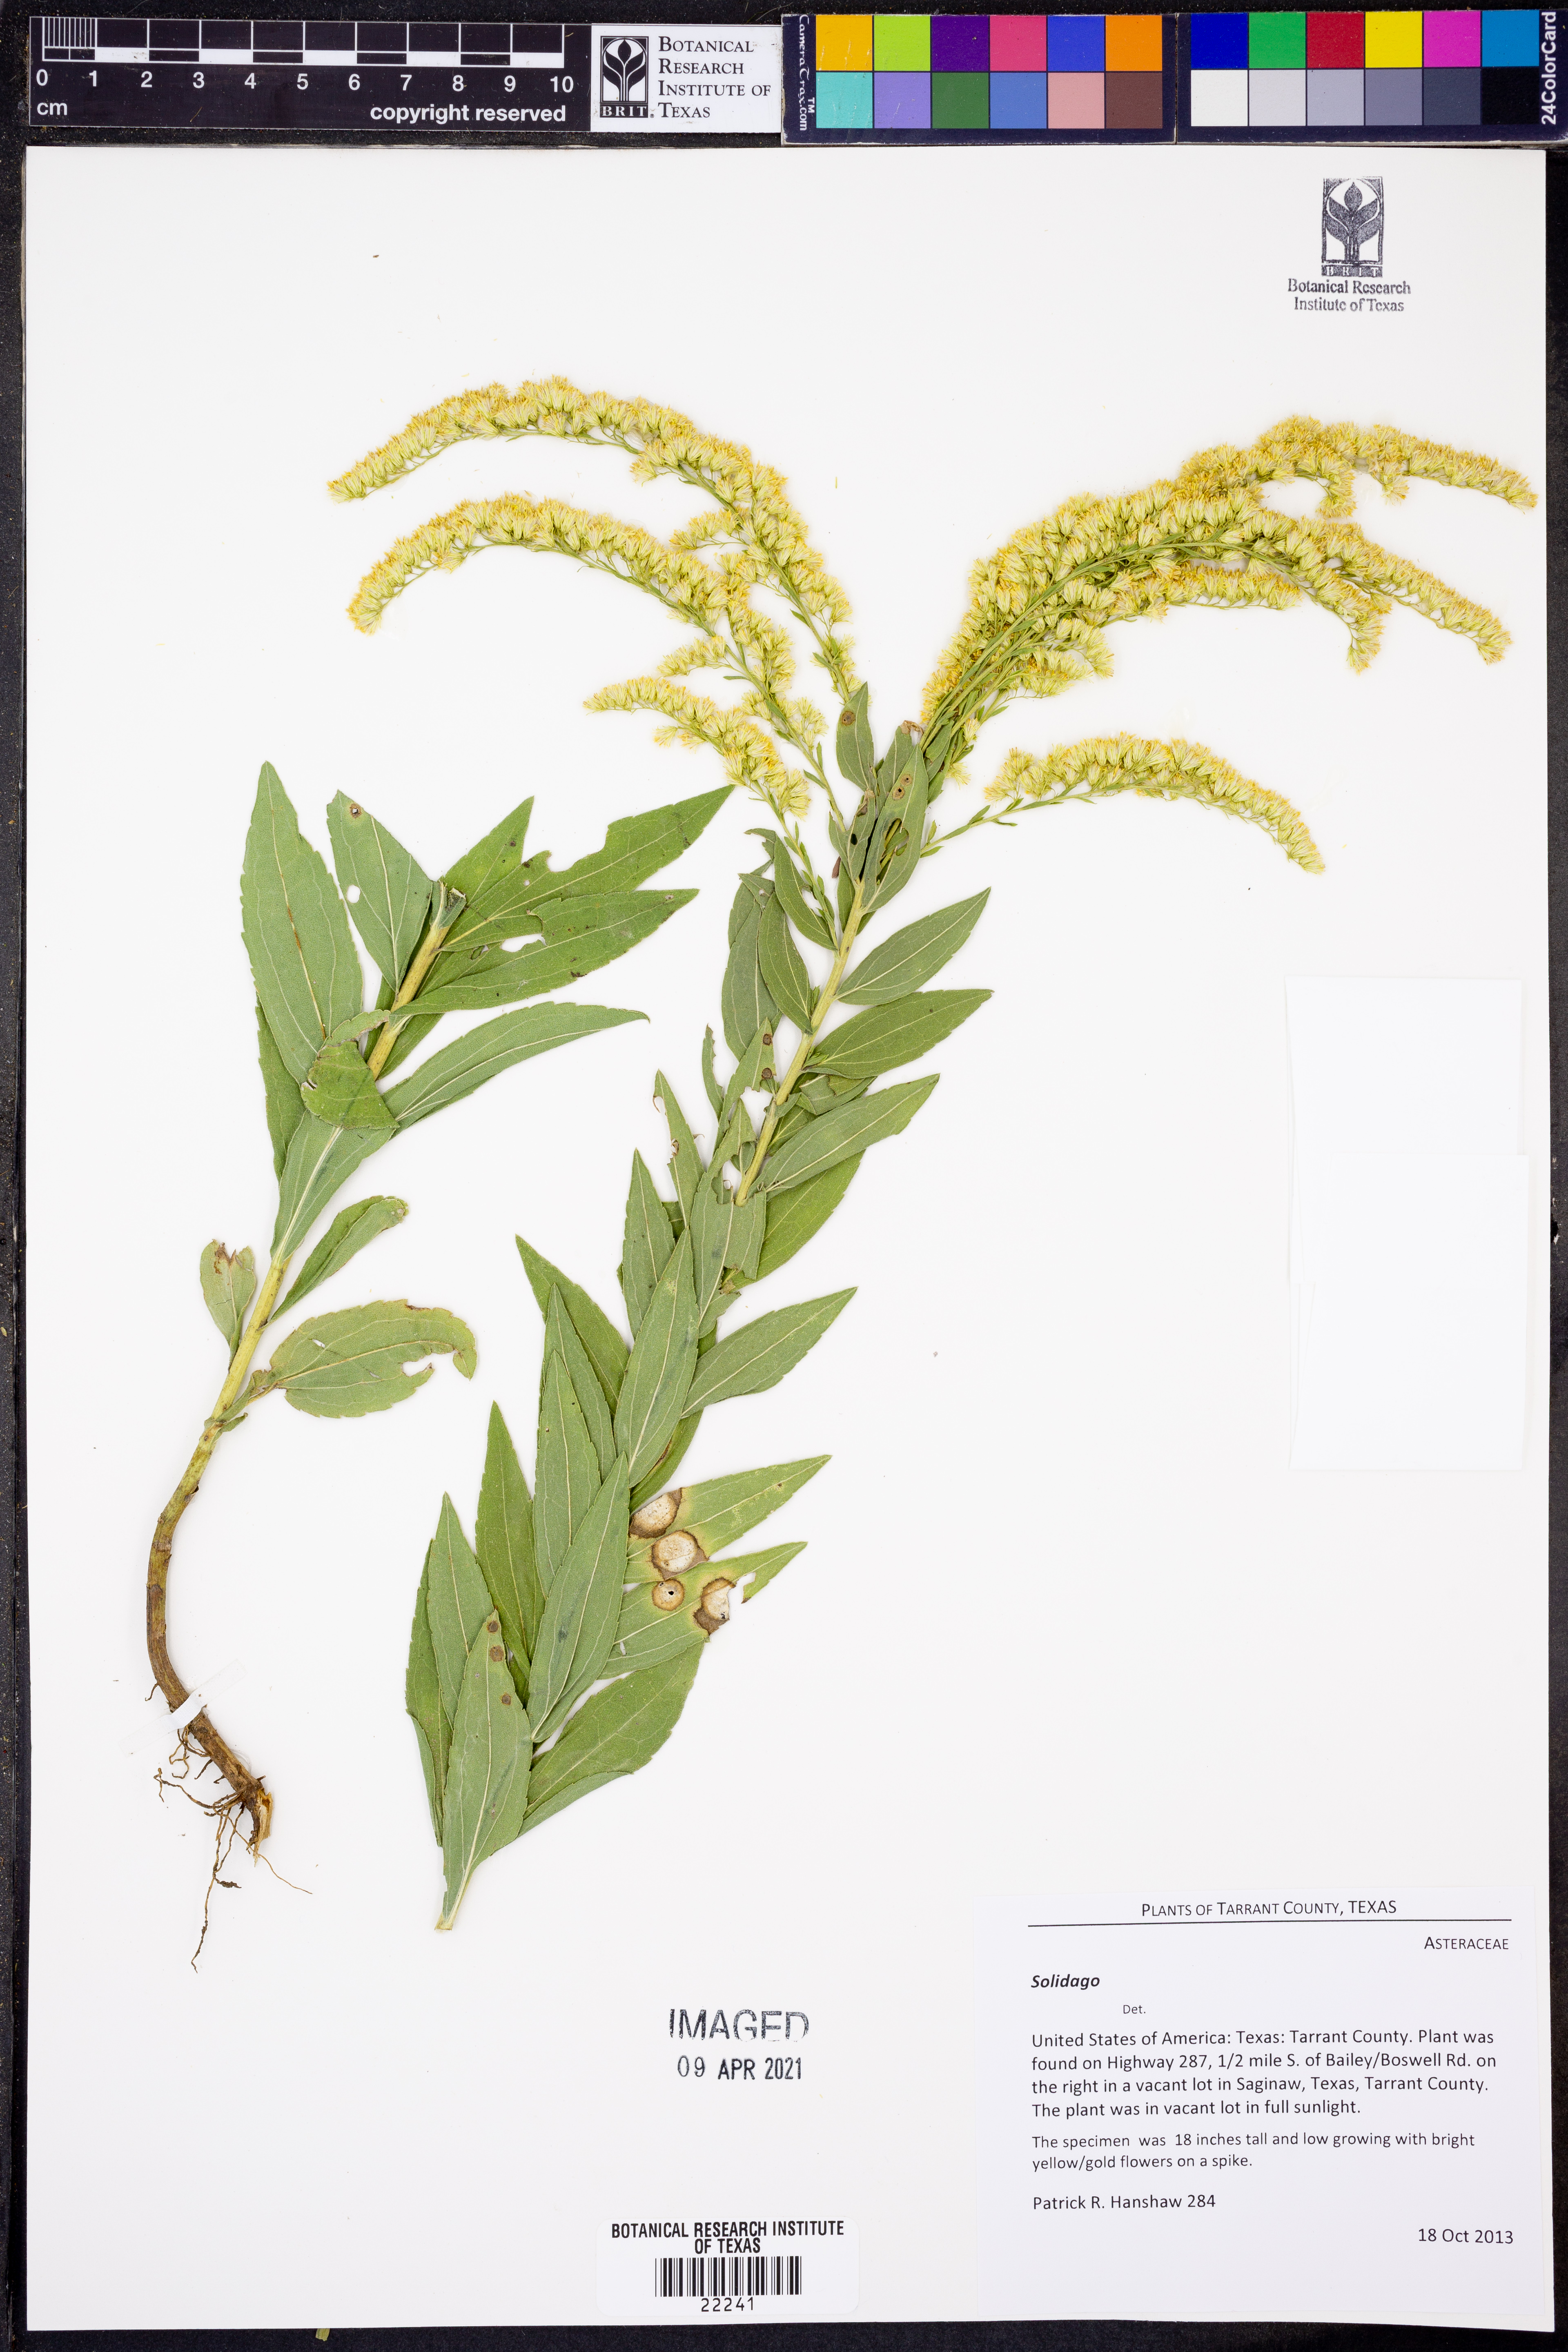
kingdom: Plantae
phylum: Tracheophyta
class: Magnoliopsida
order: Asterales
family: Asteraceae
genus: Solidago
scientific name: Solidago
